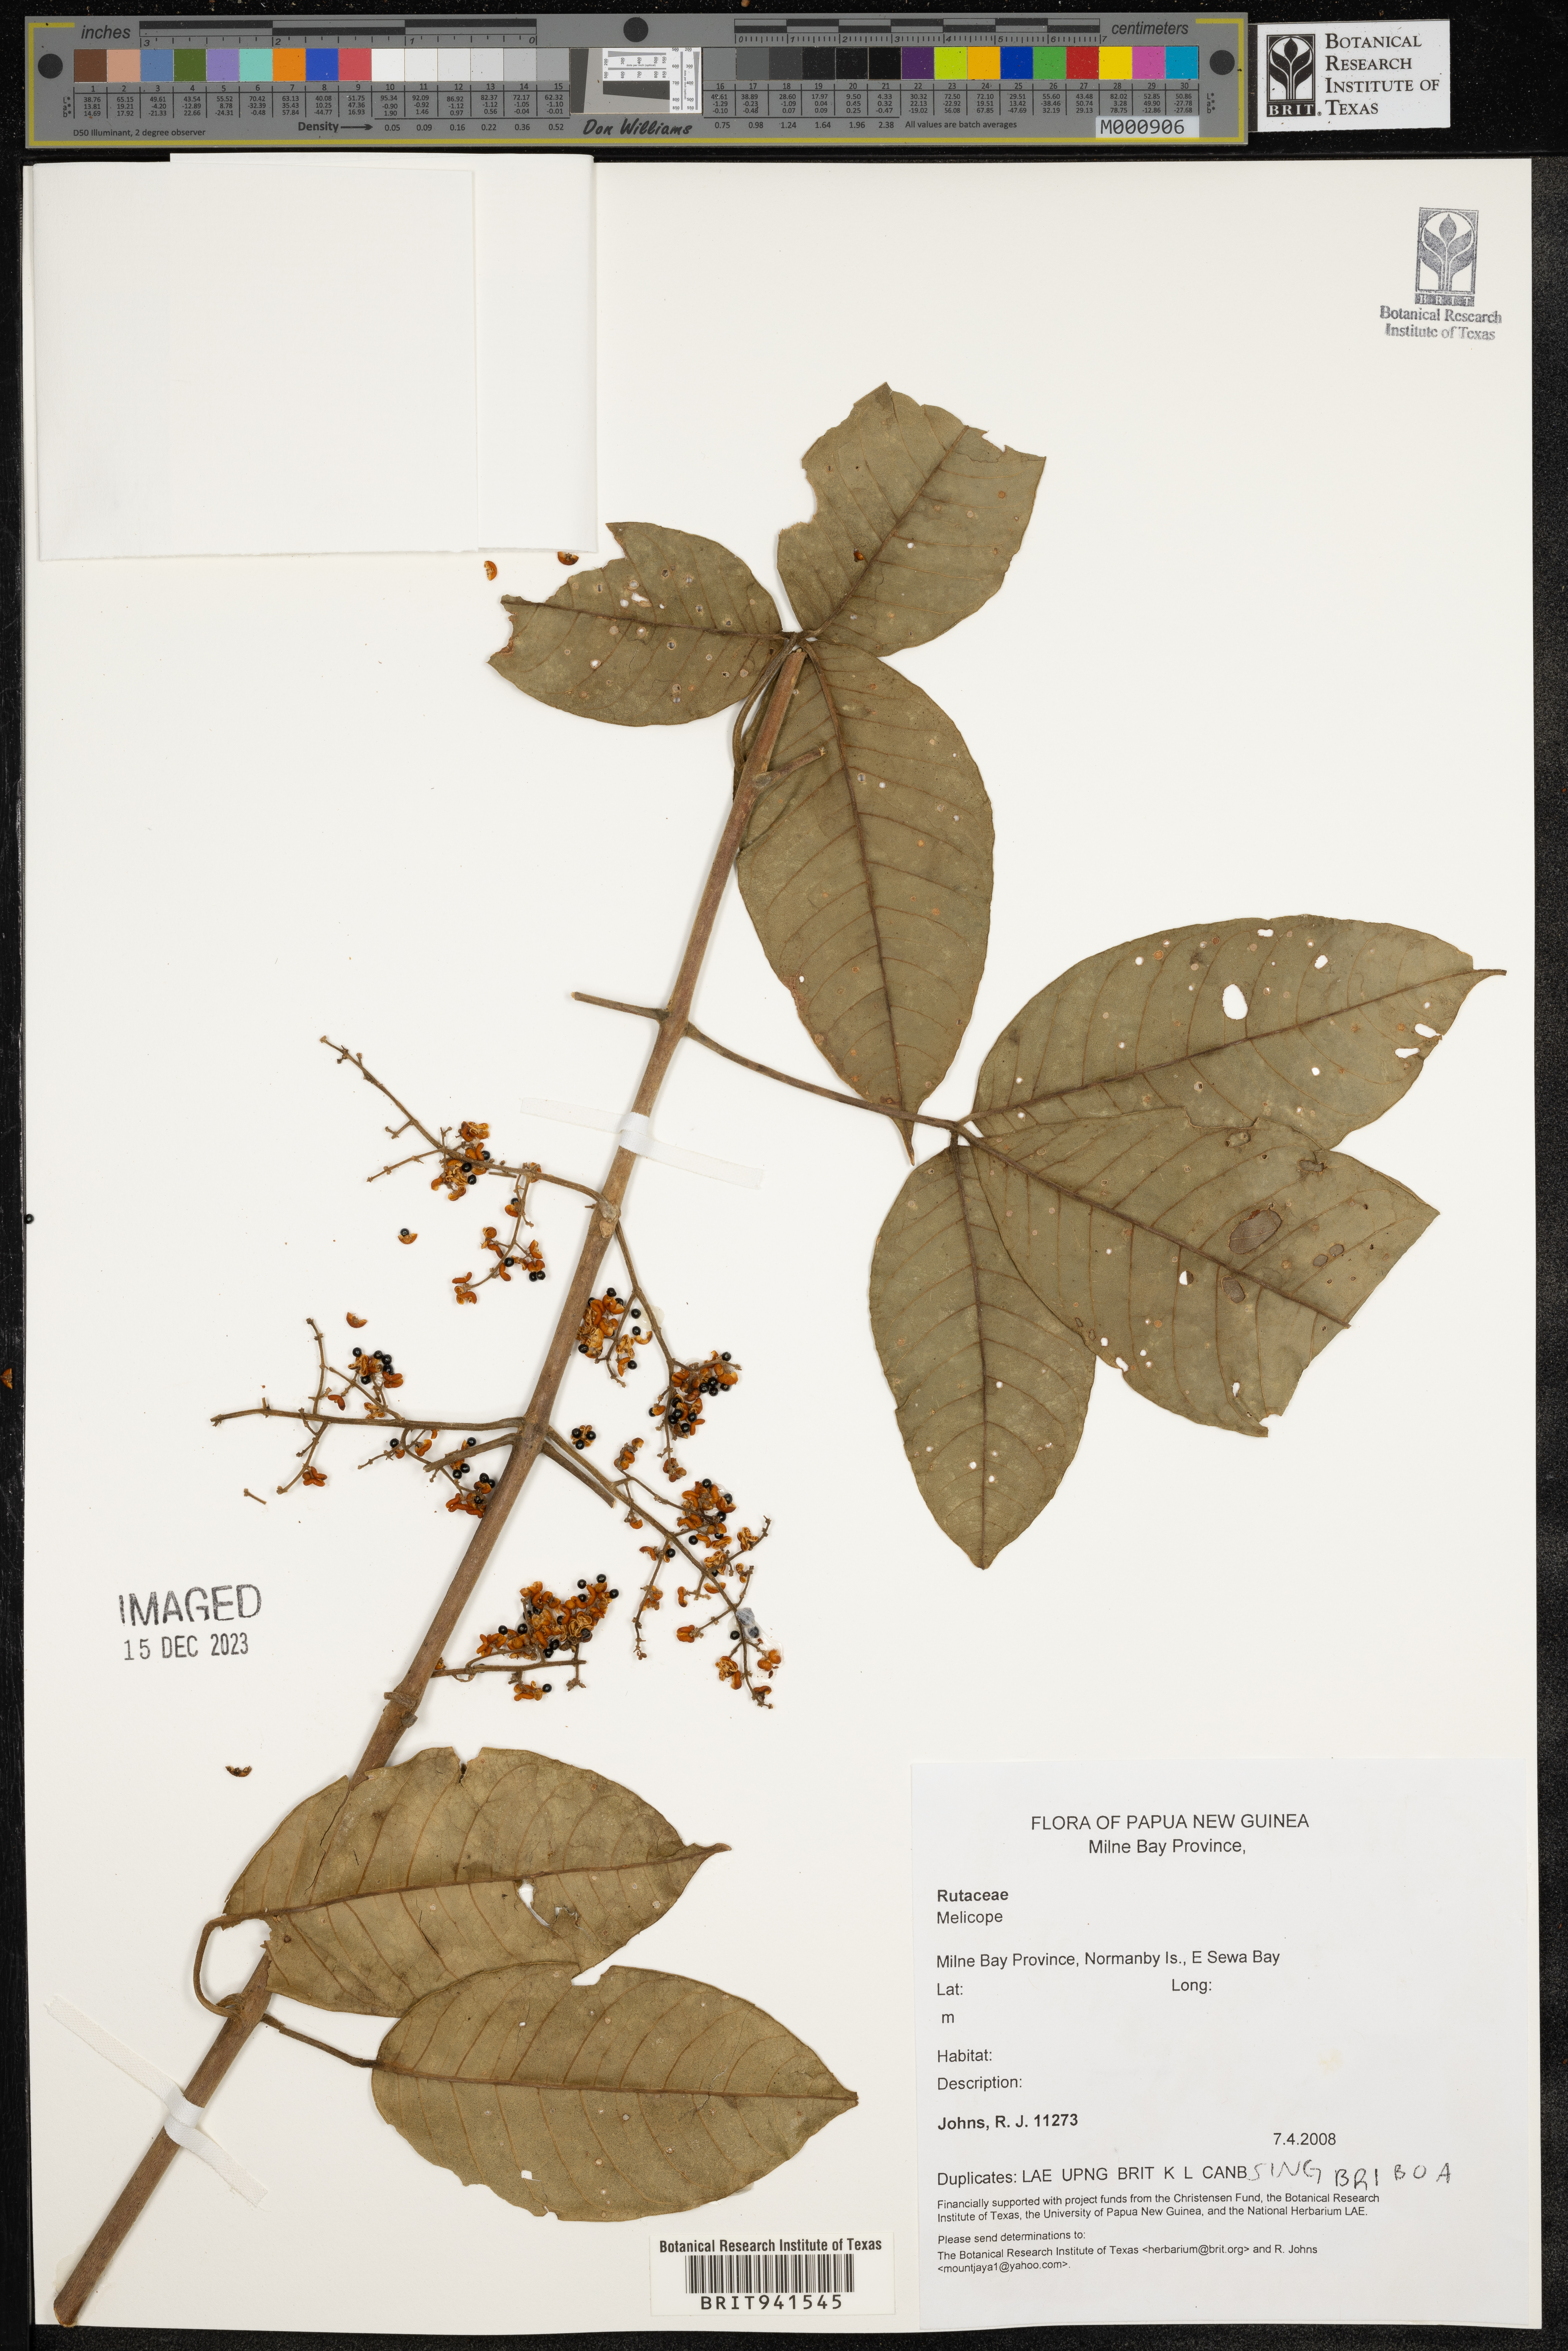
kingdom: Plantae
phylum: Tracheophyta
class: Magnoliopsida
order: Sapindales
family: Rutaceae
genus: Melicope
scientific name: Melicope
